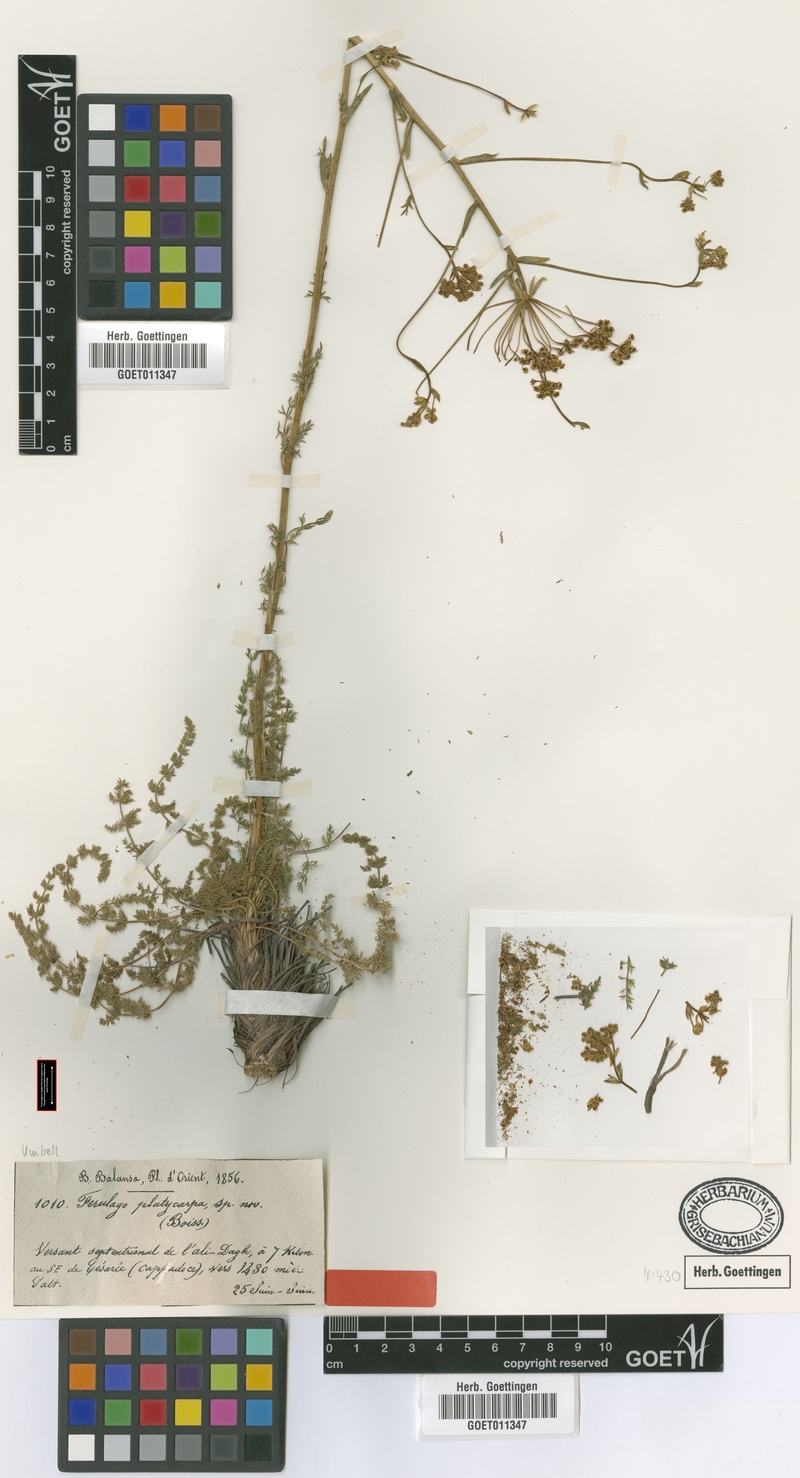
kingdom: Plantae
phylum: Tracheophyta
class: Magnoliopsida
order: Apiales
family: Apiaceae
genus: Ferulago
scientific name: Ferulago platycarpa
